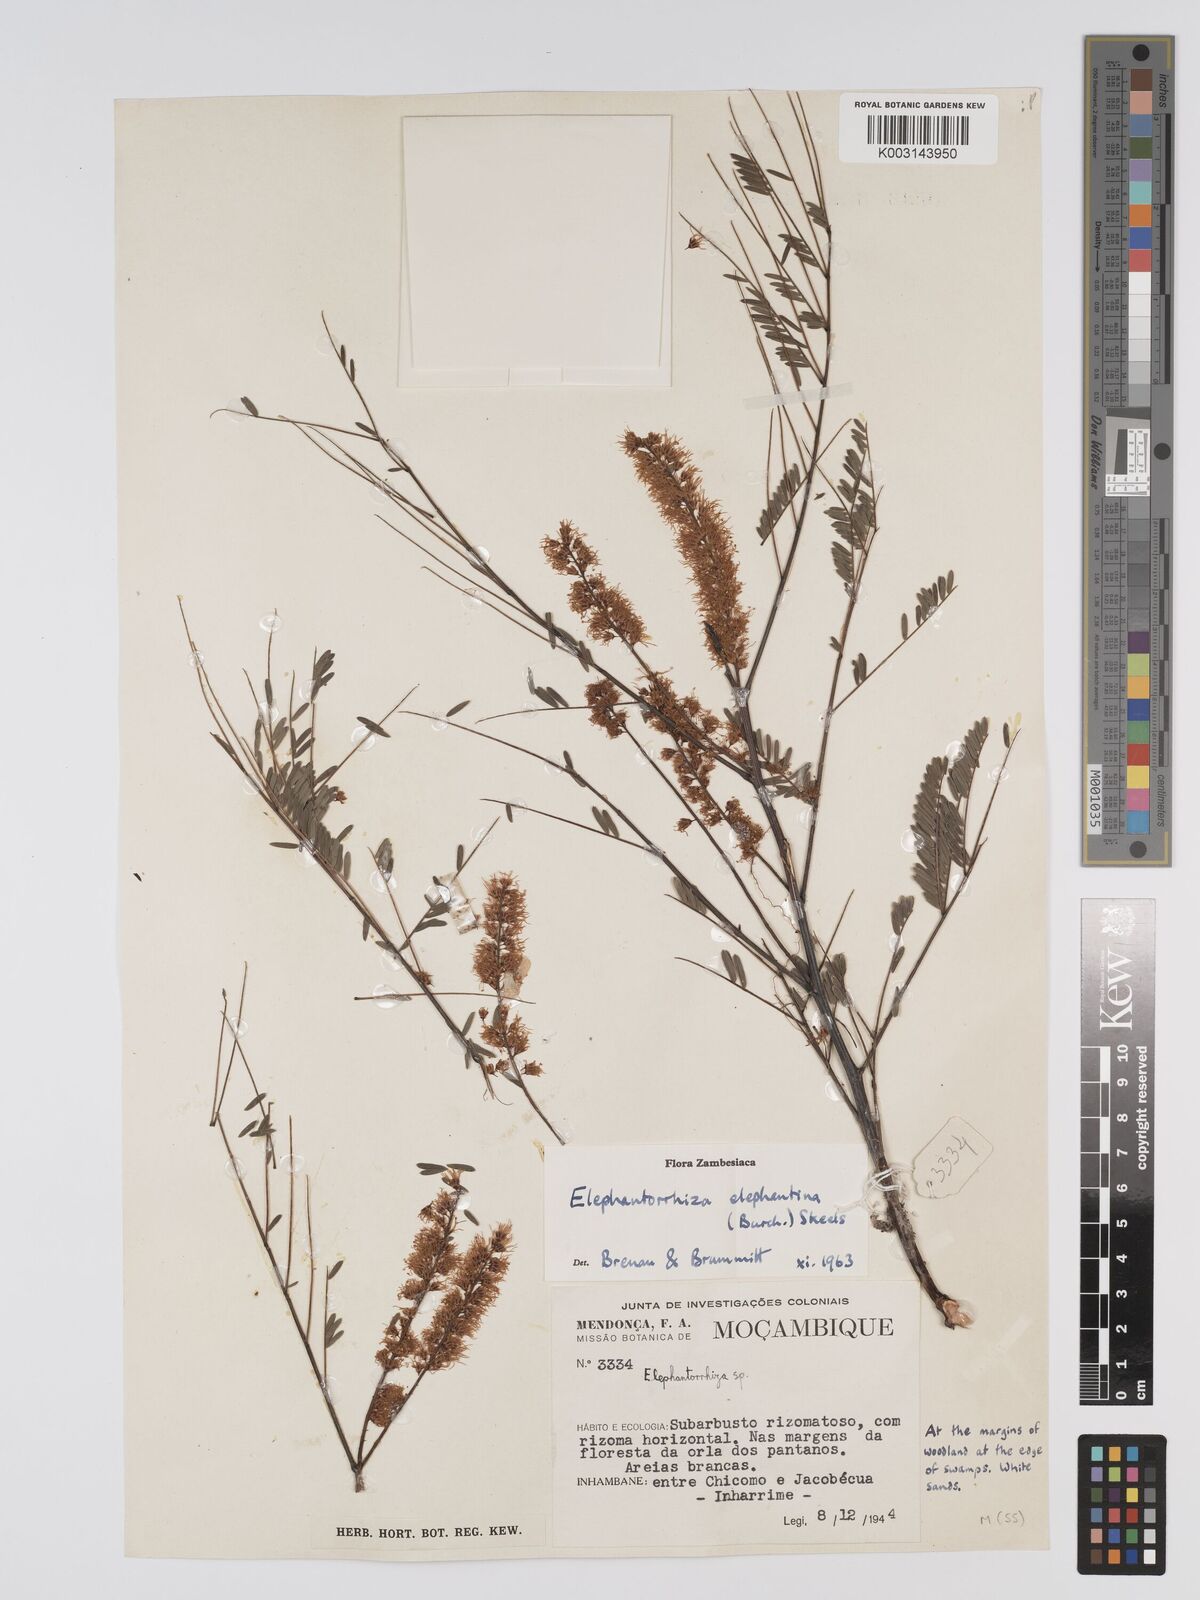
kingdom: Plantae
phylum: Tracheophyta
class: Magnoliopsida
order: Fabales
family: Fabaceae
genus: Elephantorrhiza
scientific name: Elephantorrhiza elephantina
